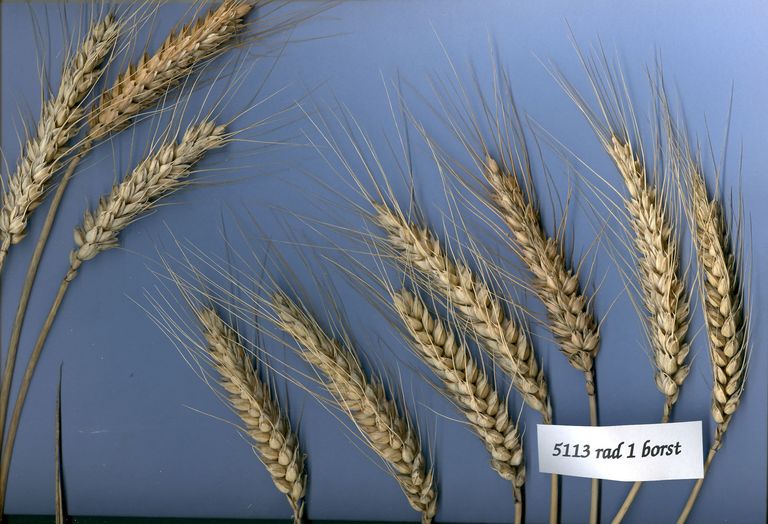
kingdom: Plantae
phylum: Tracheophyta
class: Liliopsida
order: Poales
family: Poaceae
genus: Triticum
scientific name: Triticum aestivum
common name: Common wheat
